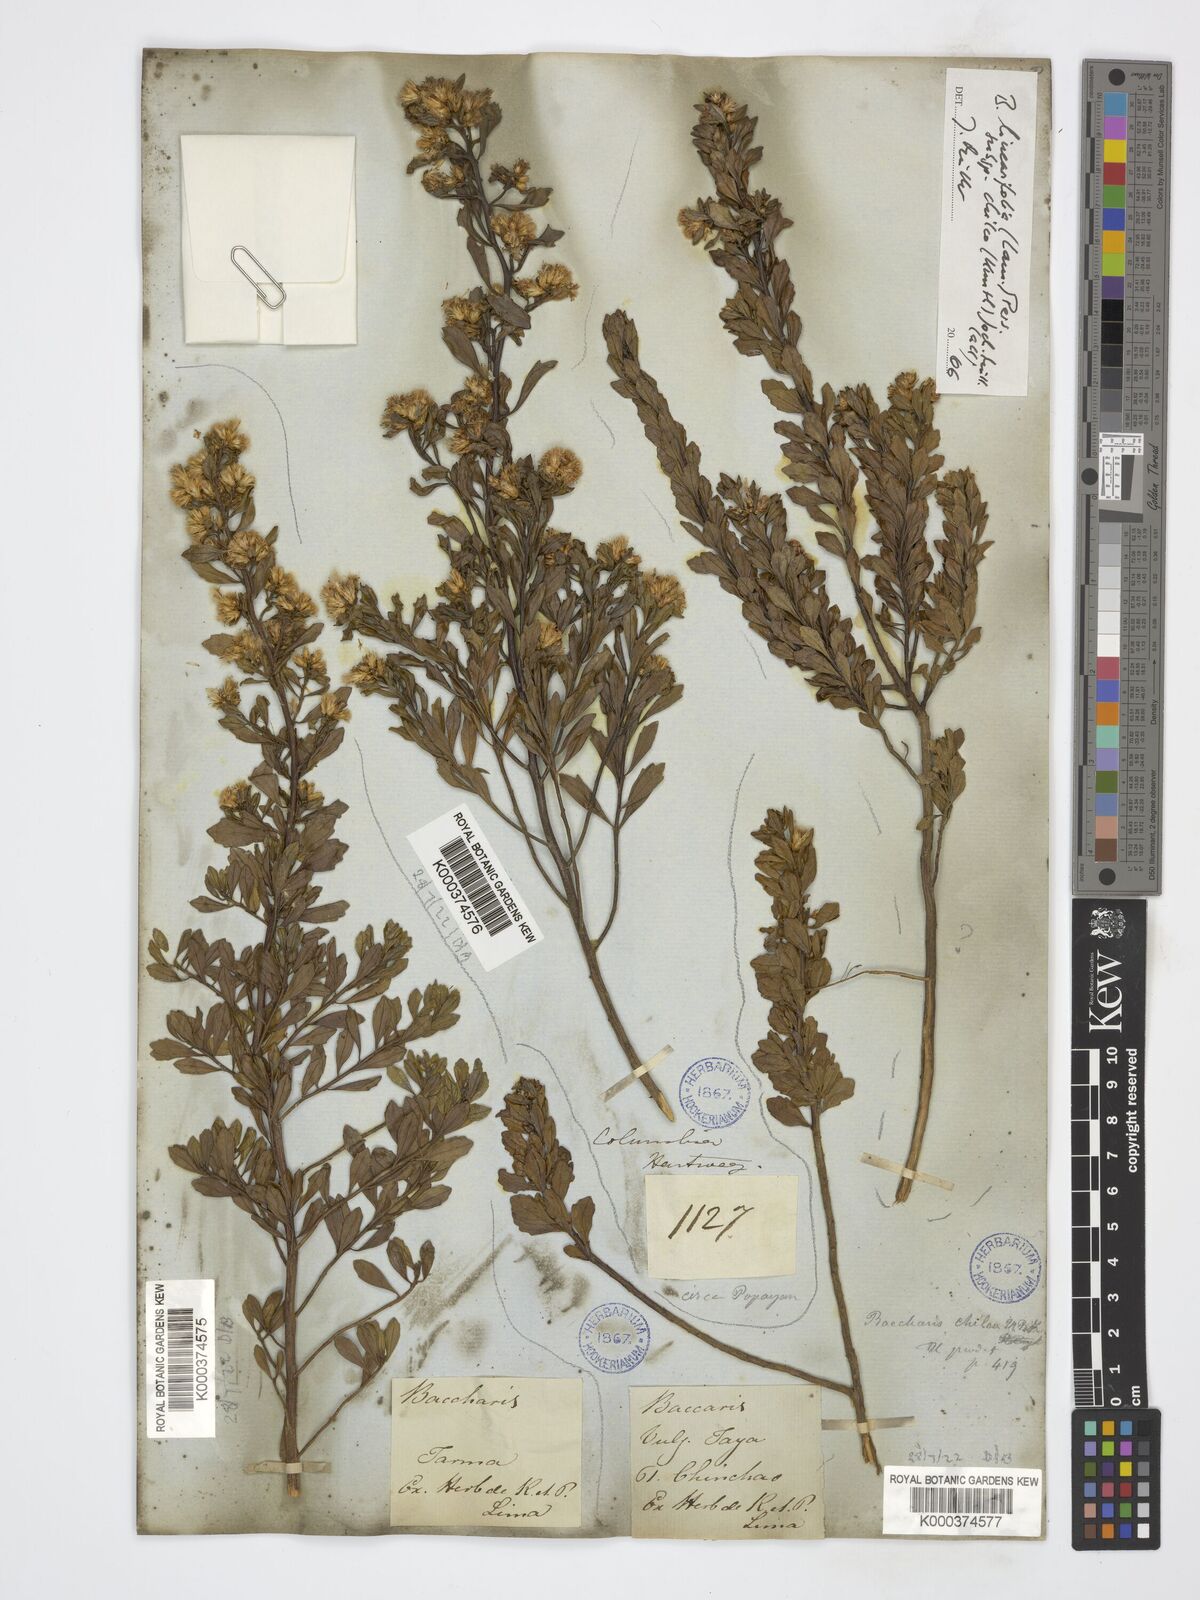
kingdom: Plantae
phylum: Tracheophyta
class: Magnoliopsida
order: Asterales
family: Asteraceae
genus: Baccharis
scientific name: Baccharis linearifolia
